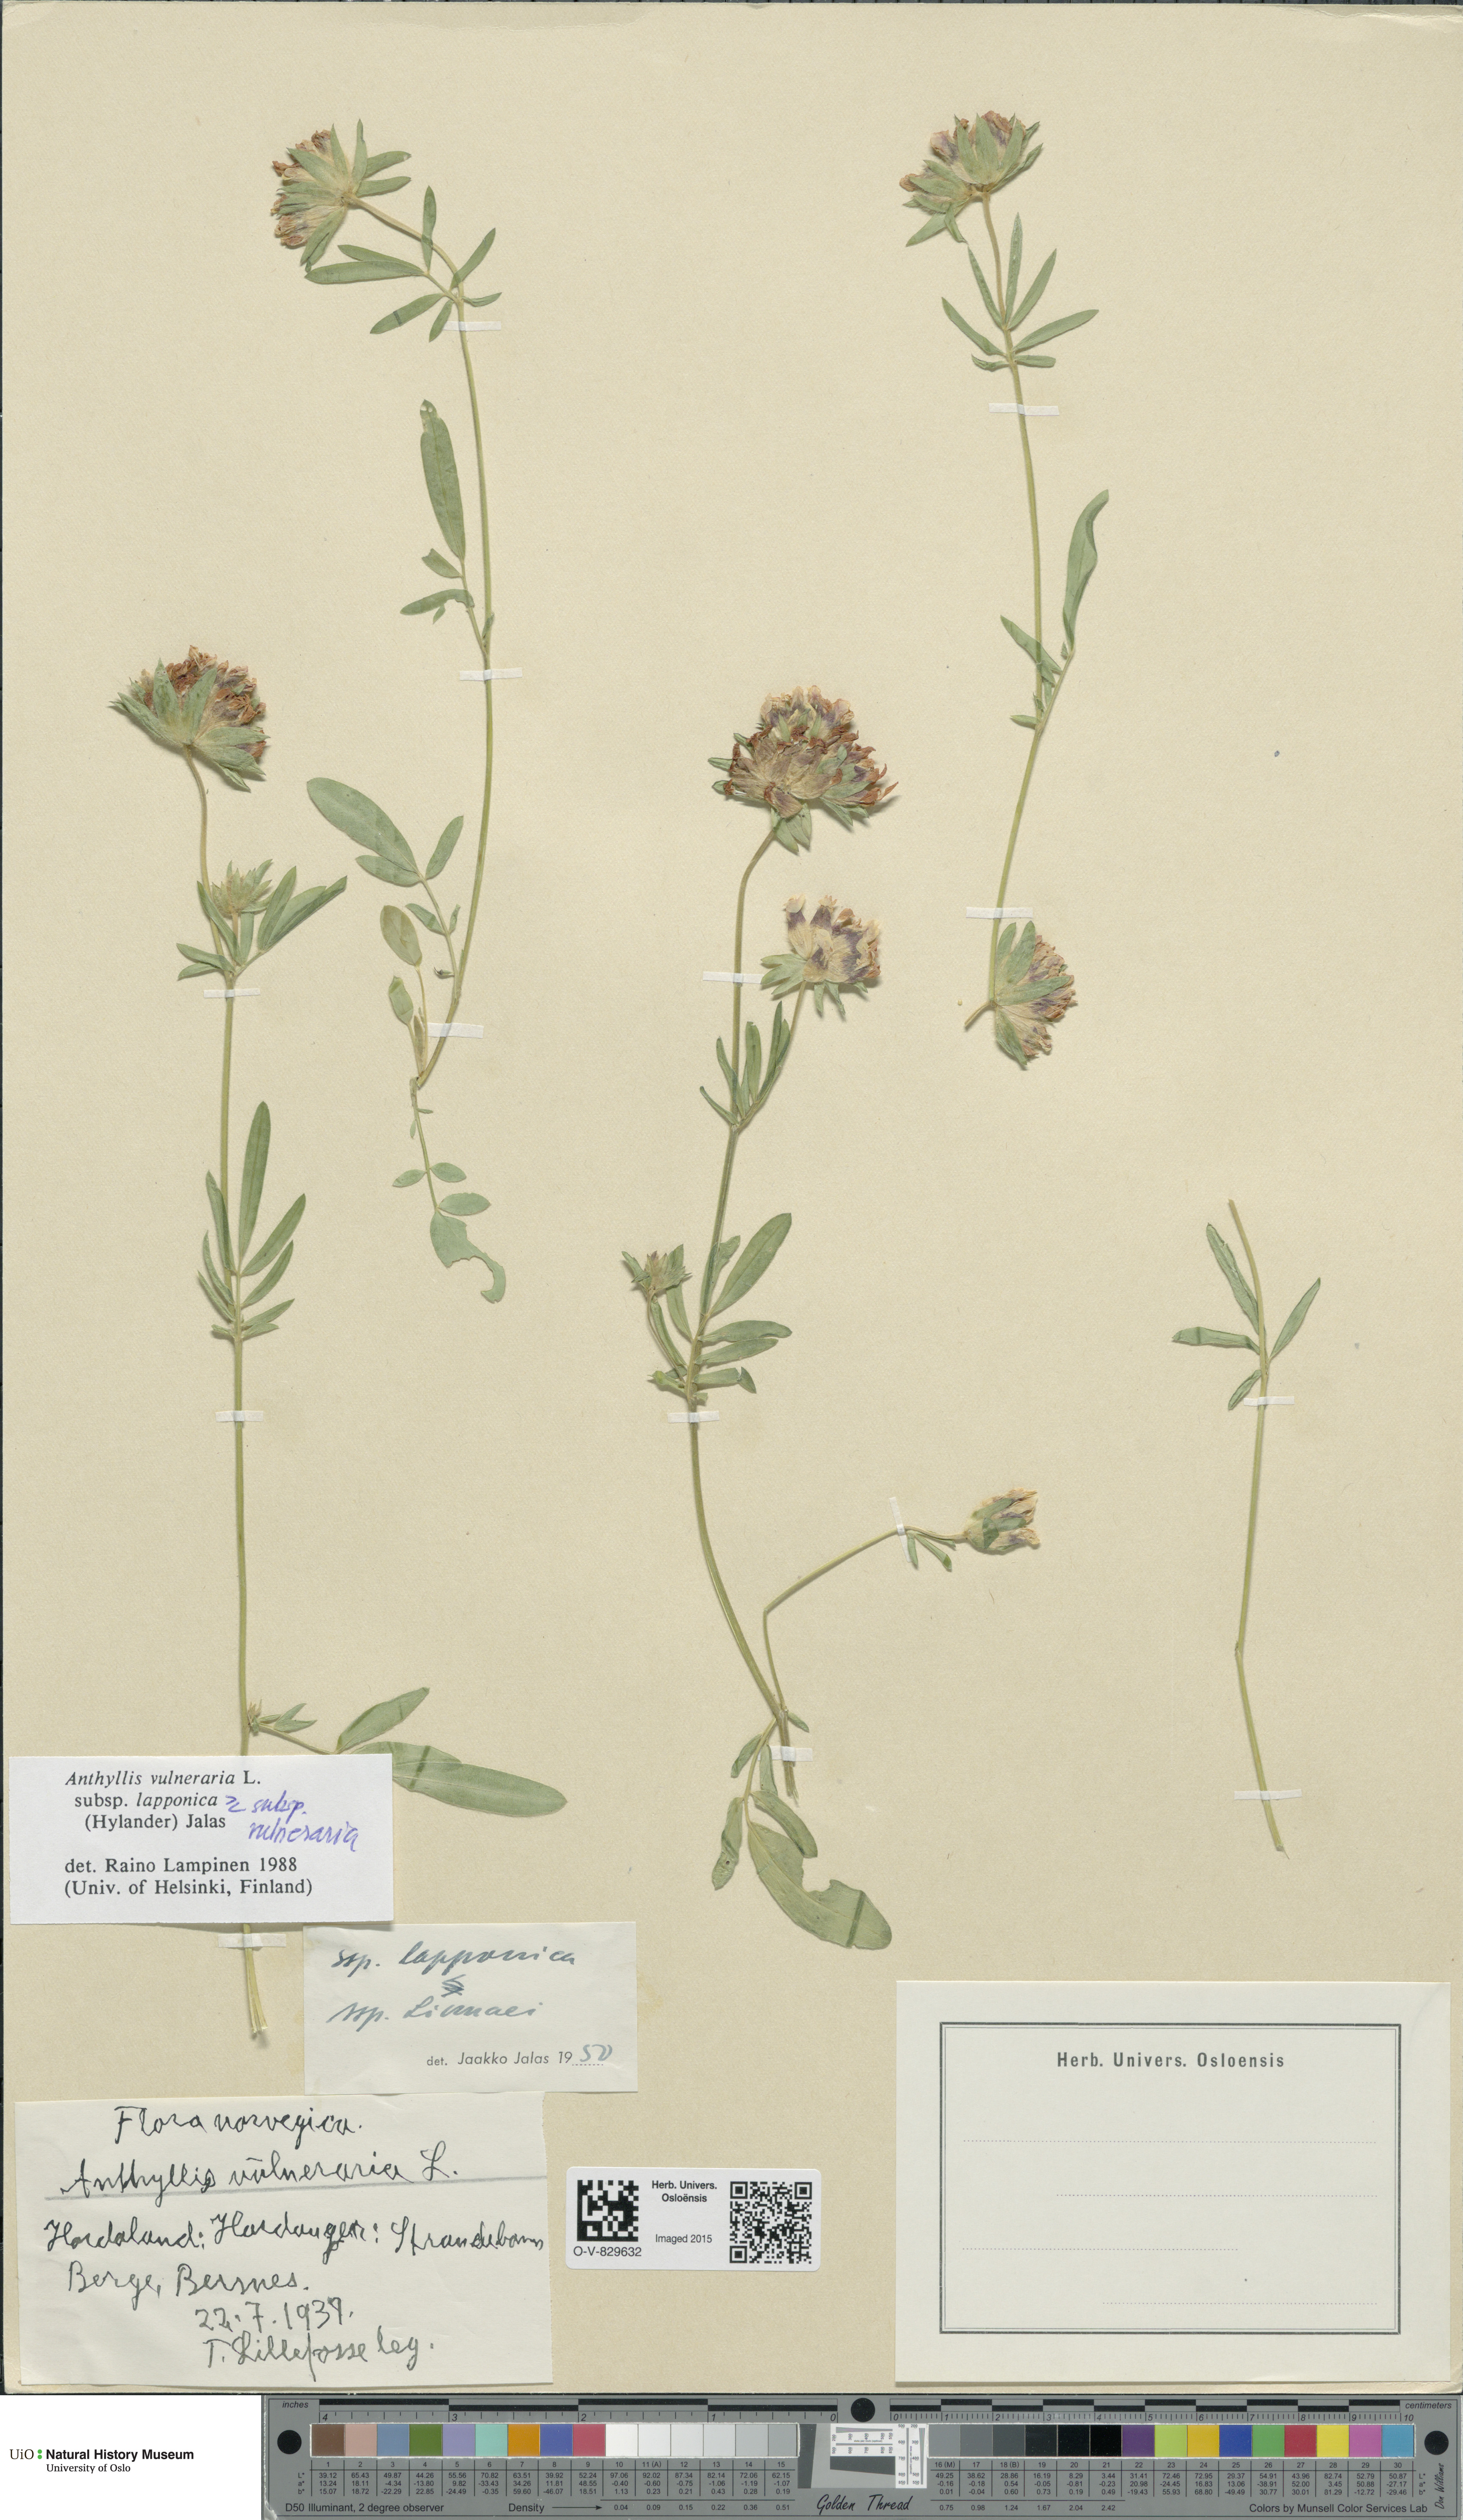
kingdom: Plantae
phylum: Tracheophyta
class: Magnoliopsida
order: Fabales
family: Fabaceae
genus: Anthyllis
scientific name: Anthyllis
